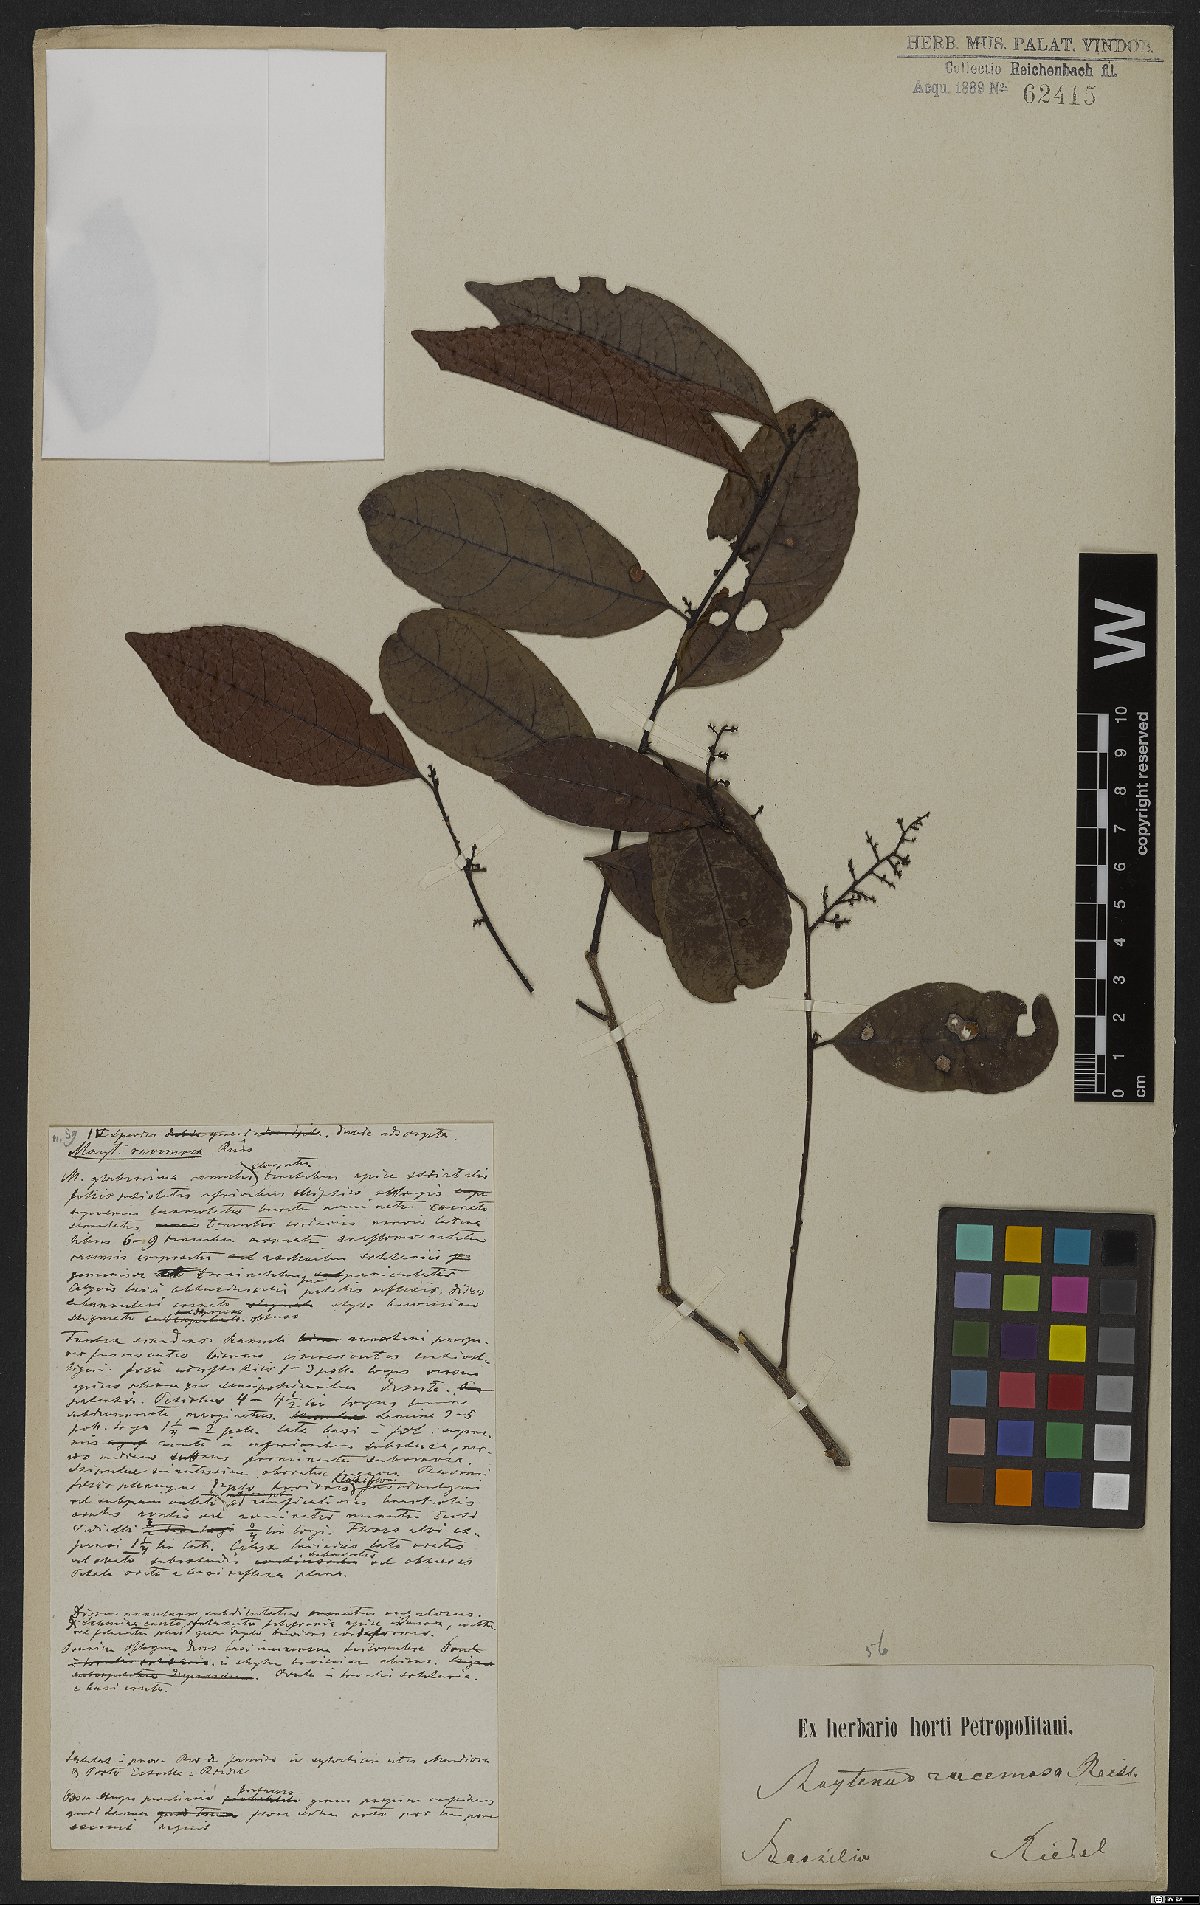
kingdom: Plantae
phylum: Tracheophyta
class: Magnoliopsida
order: Celastrales
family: Celastraceae
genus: Celastrus
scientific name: Celastrus grenadensis
